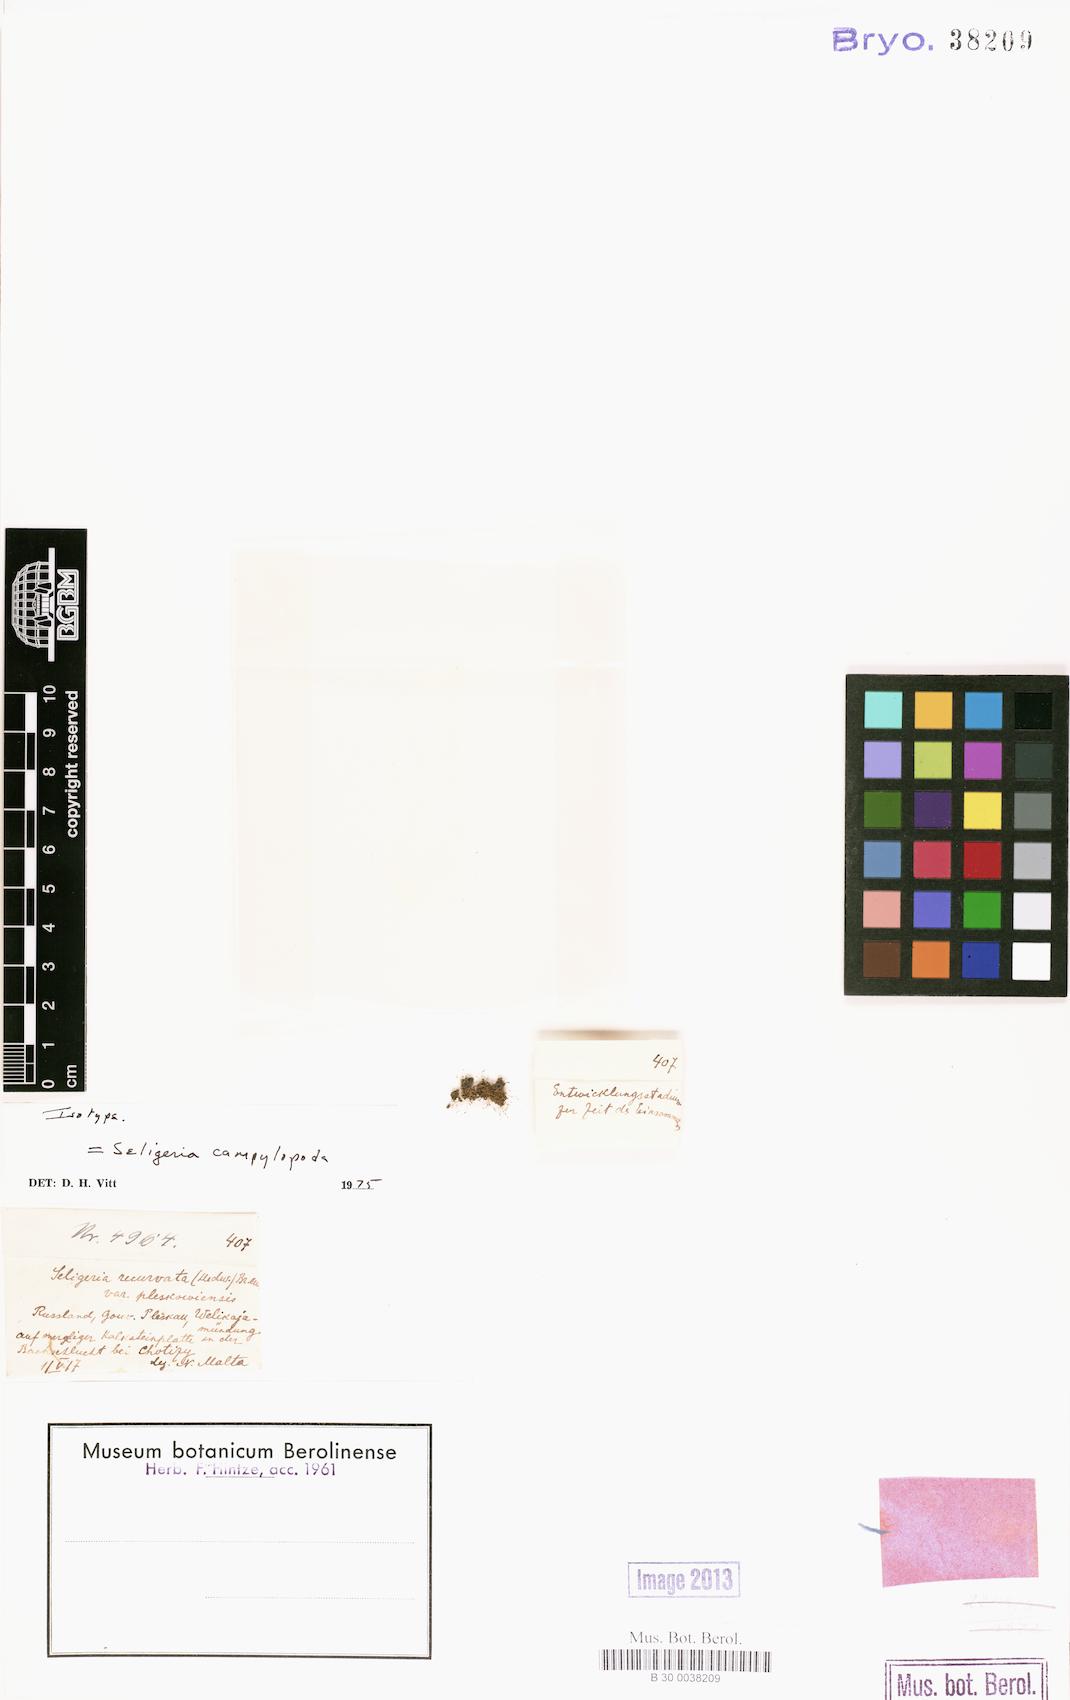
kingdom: Plantae
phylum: Bryophyta
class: Bryopsida
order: Grimmiales
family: Seligeriaceae
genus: Blindiadelphus
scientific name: Blindiadelphus campylopodus
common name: Bentfoot rock-bristle
